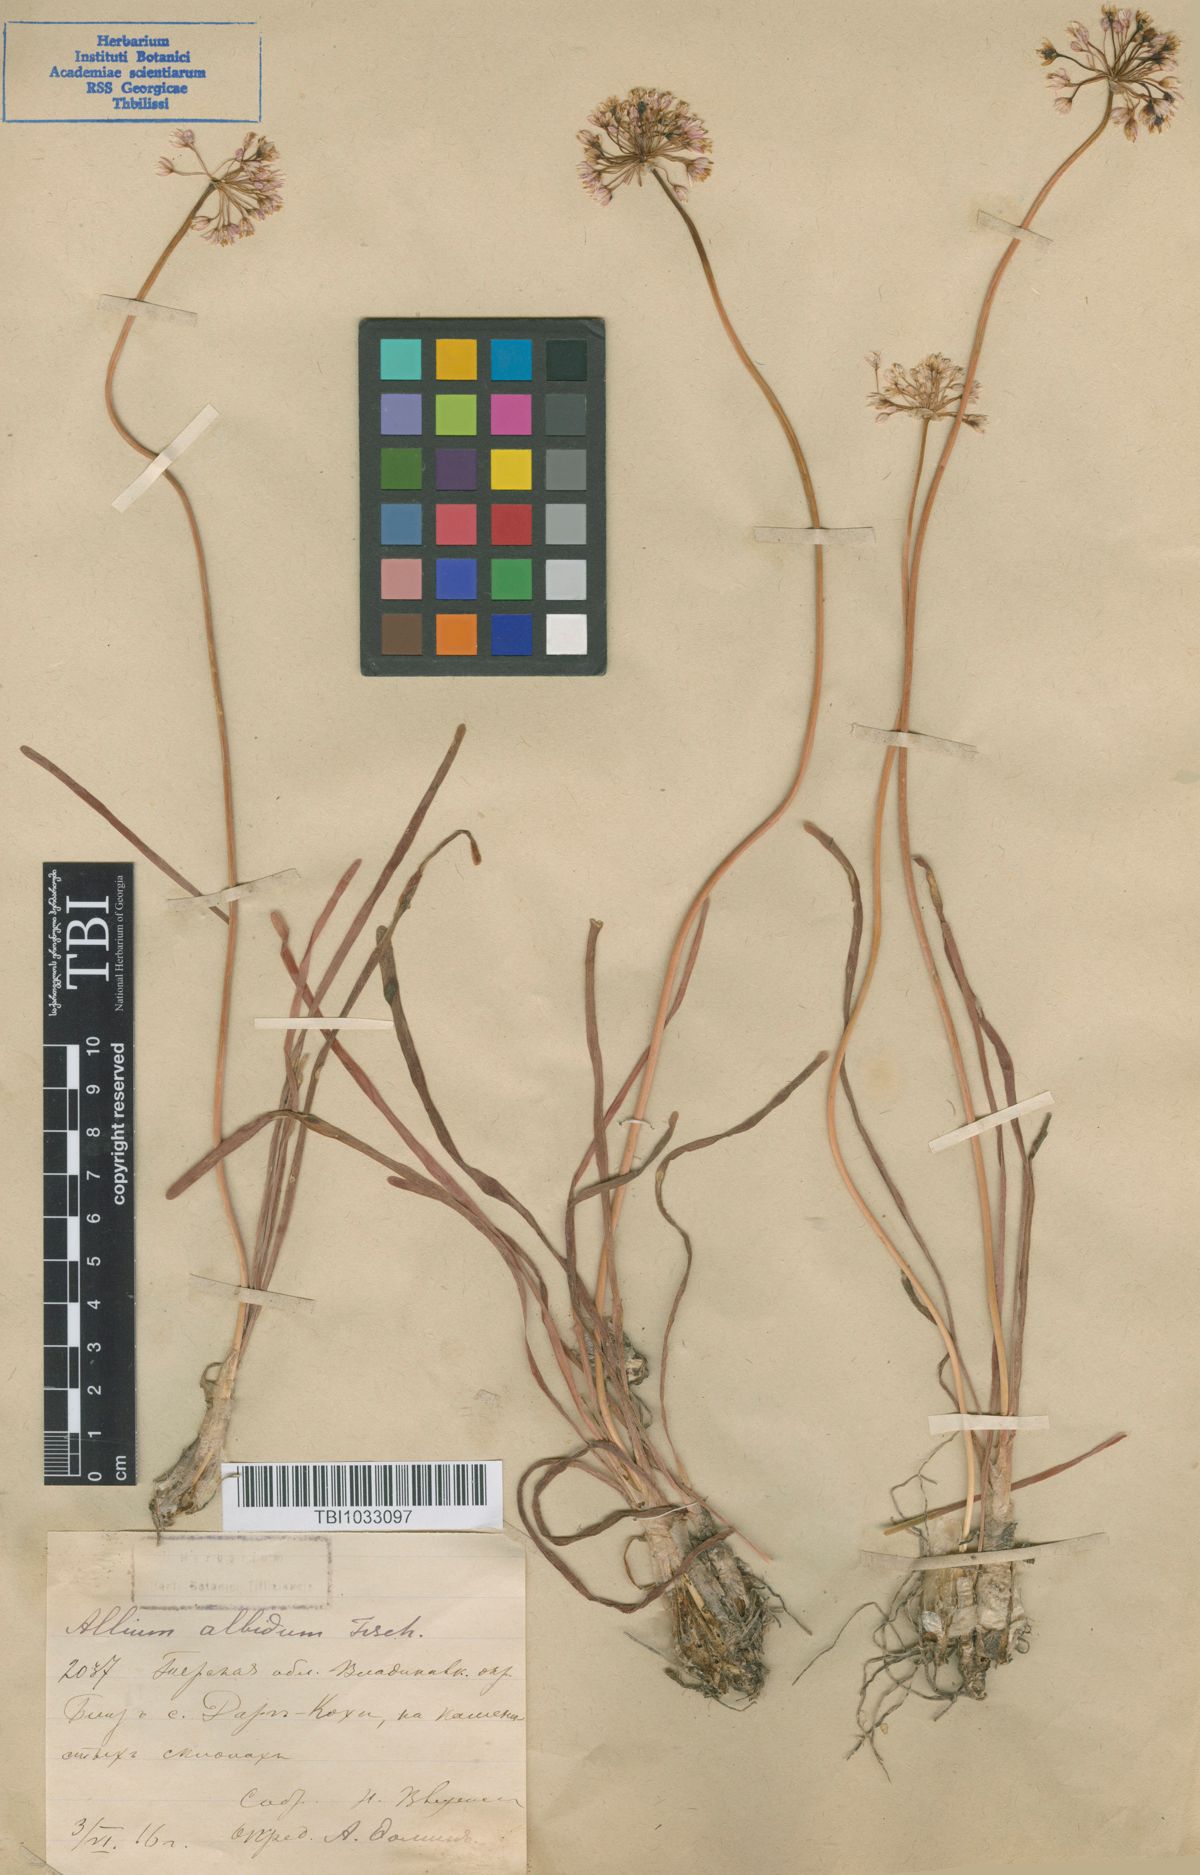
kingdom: Plantae
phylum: Tracheophyta
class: Liliopsida
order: Asparagales
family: Amaryllidaceae
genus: Allium
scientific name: Allium denudatum
